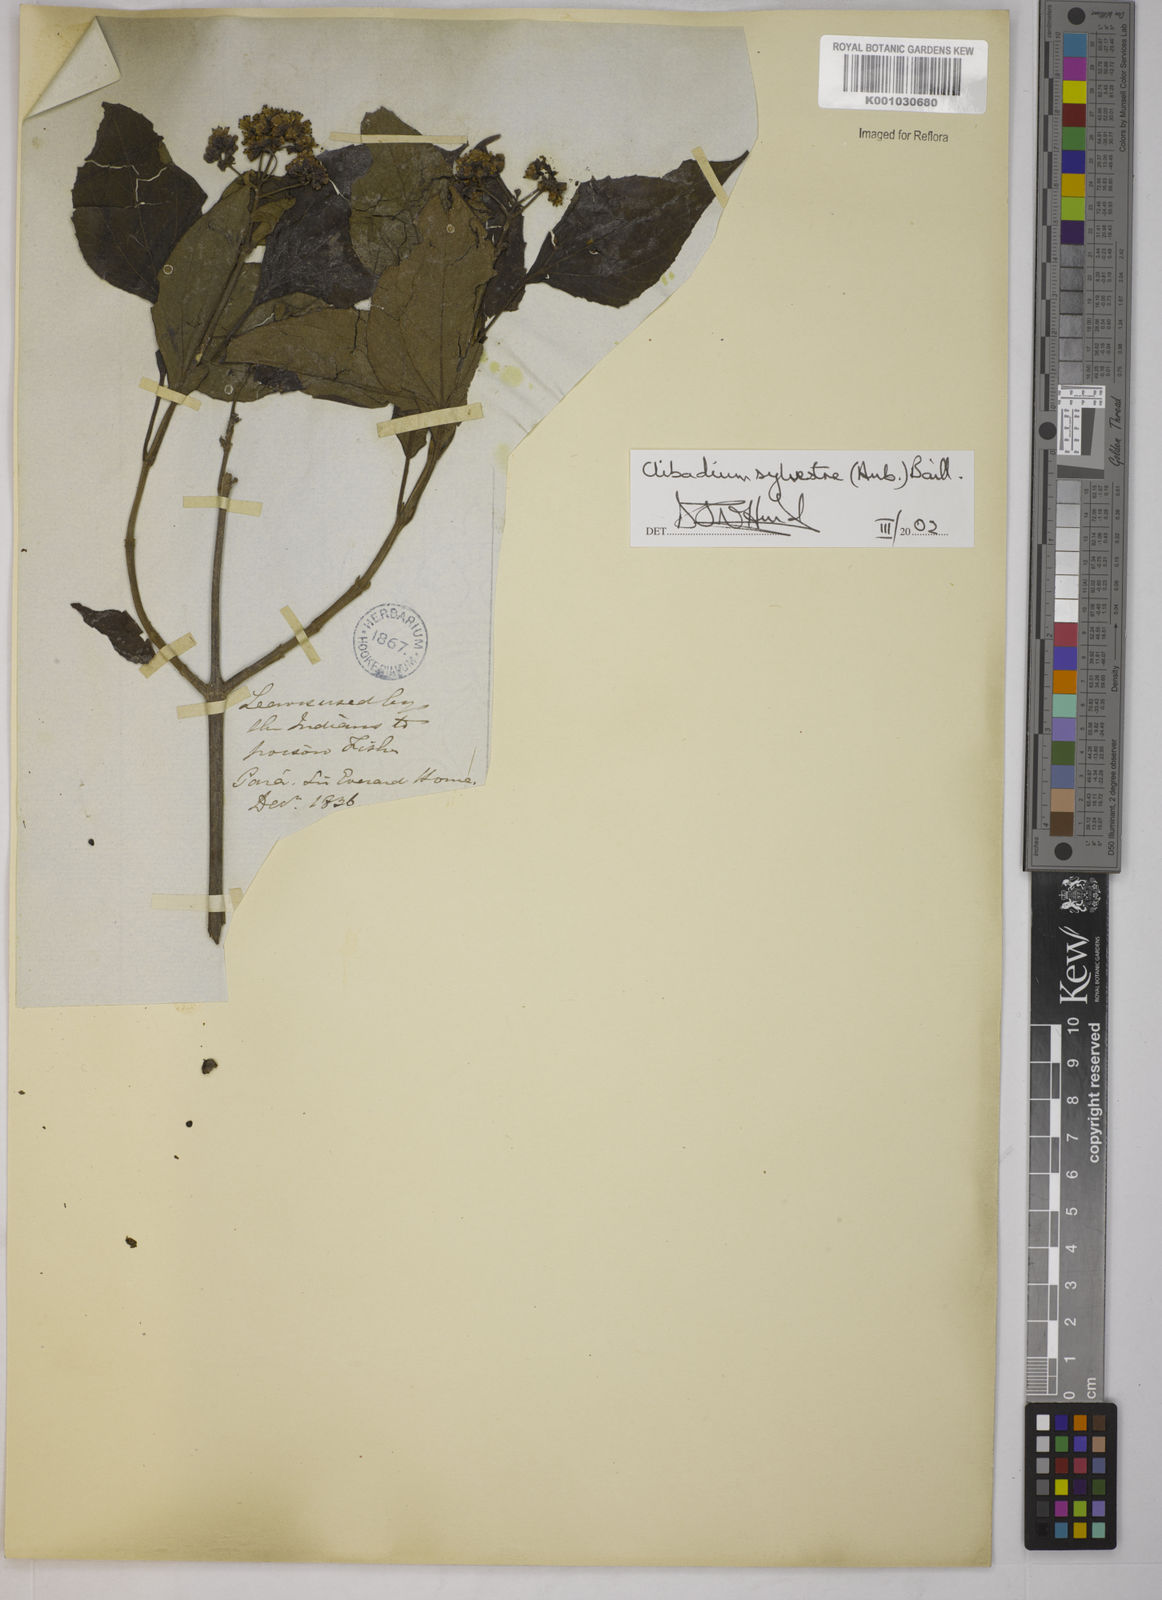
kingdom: Plantae
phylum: Tracheophyta
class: Magnoliopsida
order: Asterales
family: Asteraceae
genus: Clibadium
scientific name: Clibadium sylvestre
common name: Barbasco
